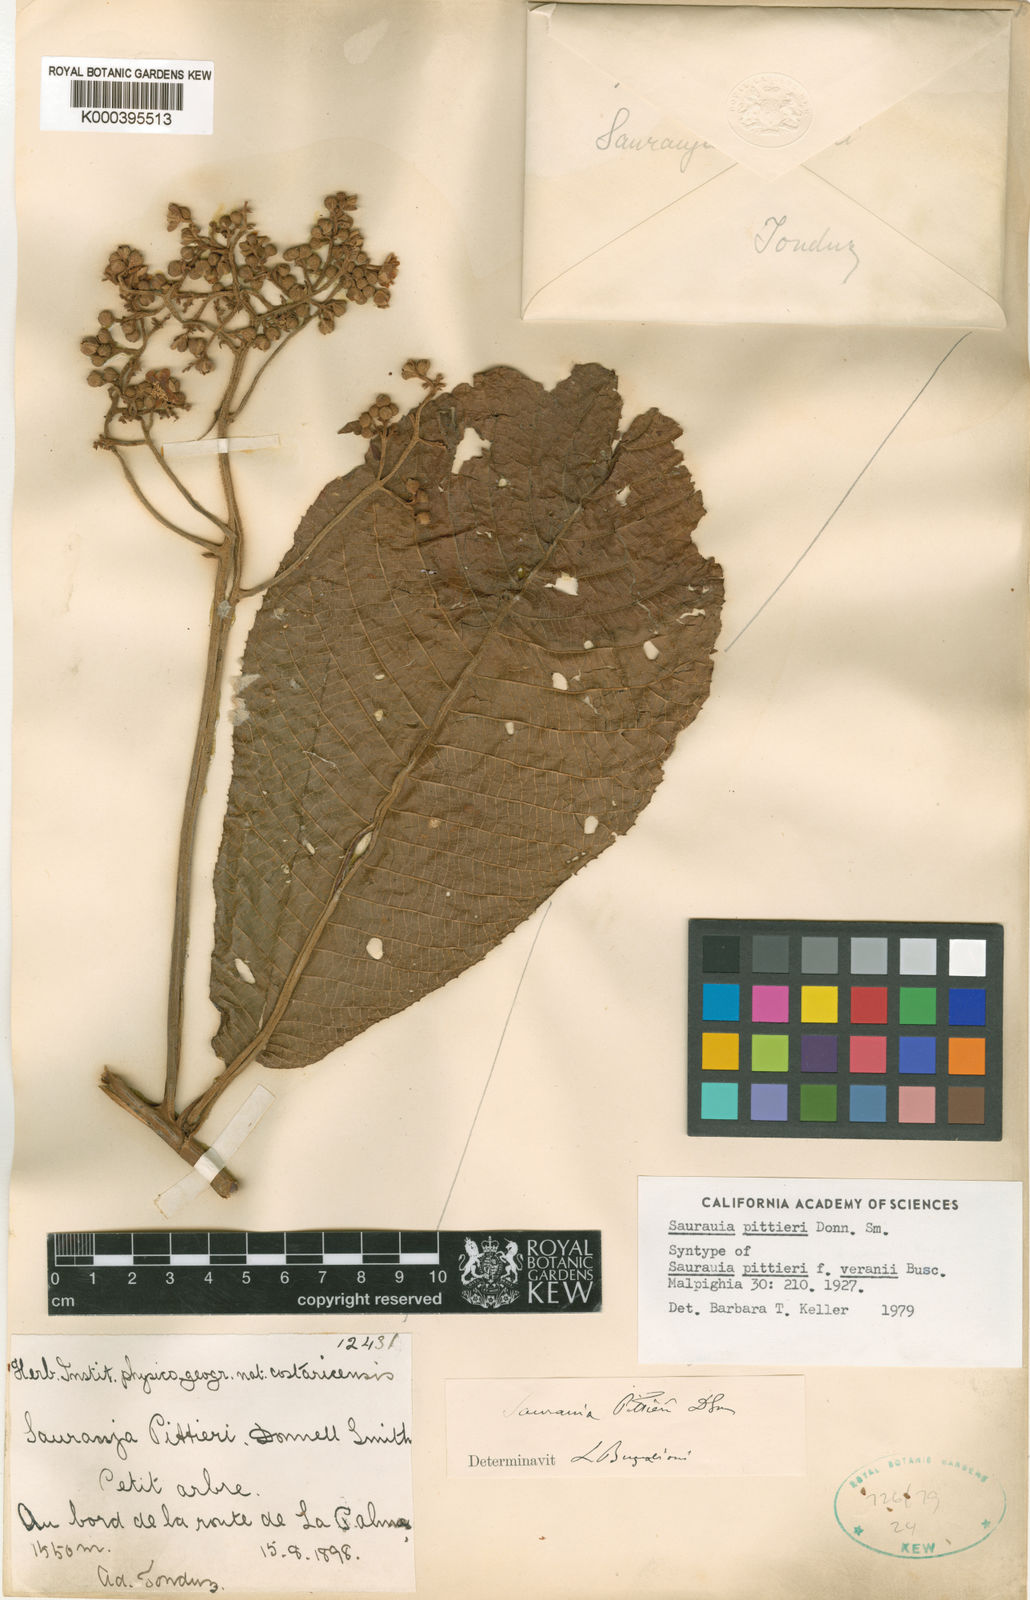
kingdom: Plantae
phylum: Tracheophyta
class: Magnoliopsida
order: Ericales
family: Actinidiaceae
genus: Saurauia
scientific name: Saurauia pittieri
